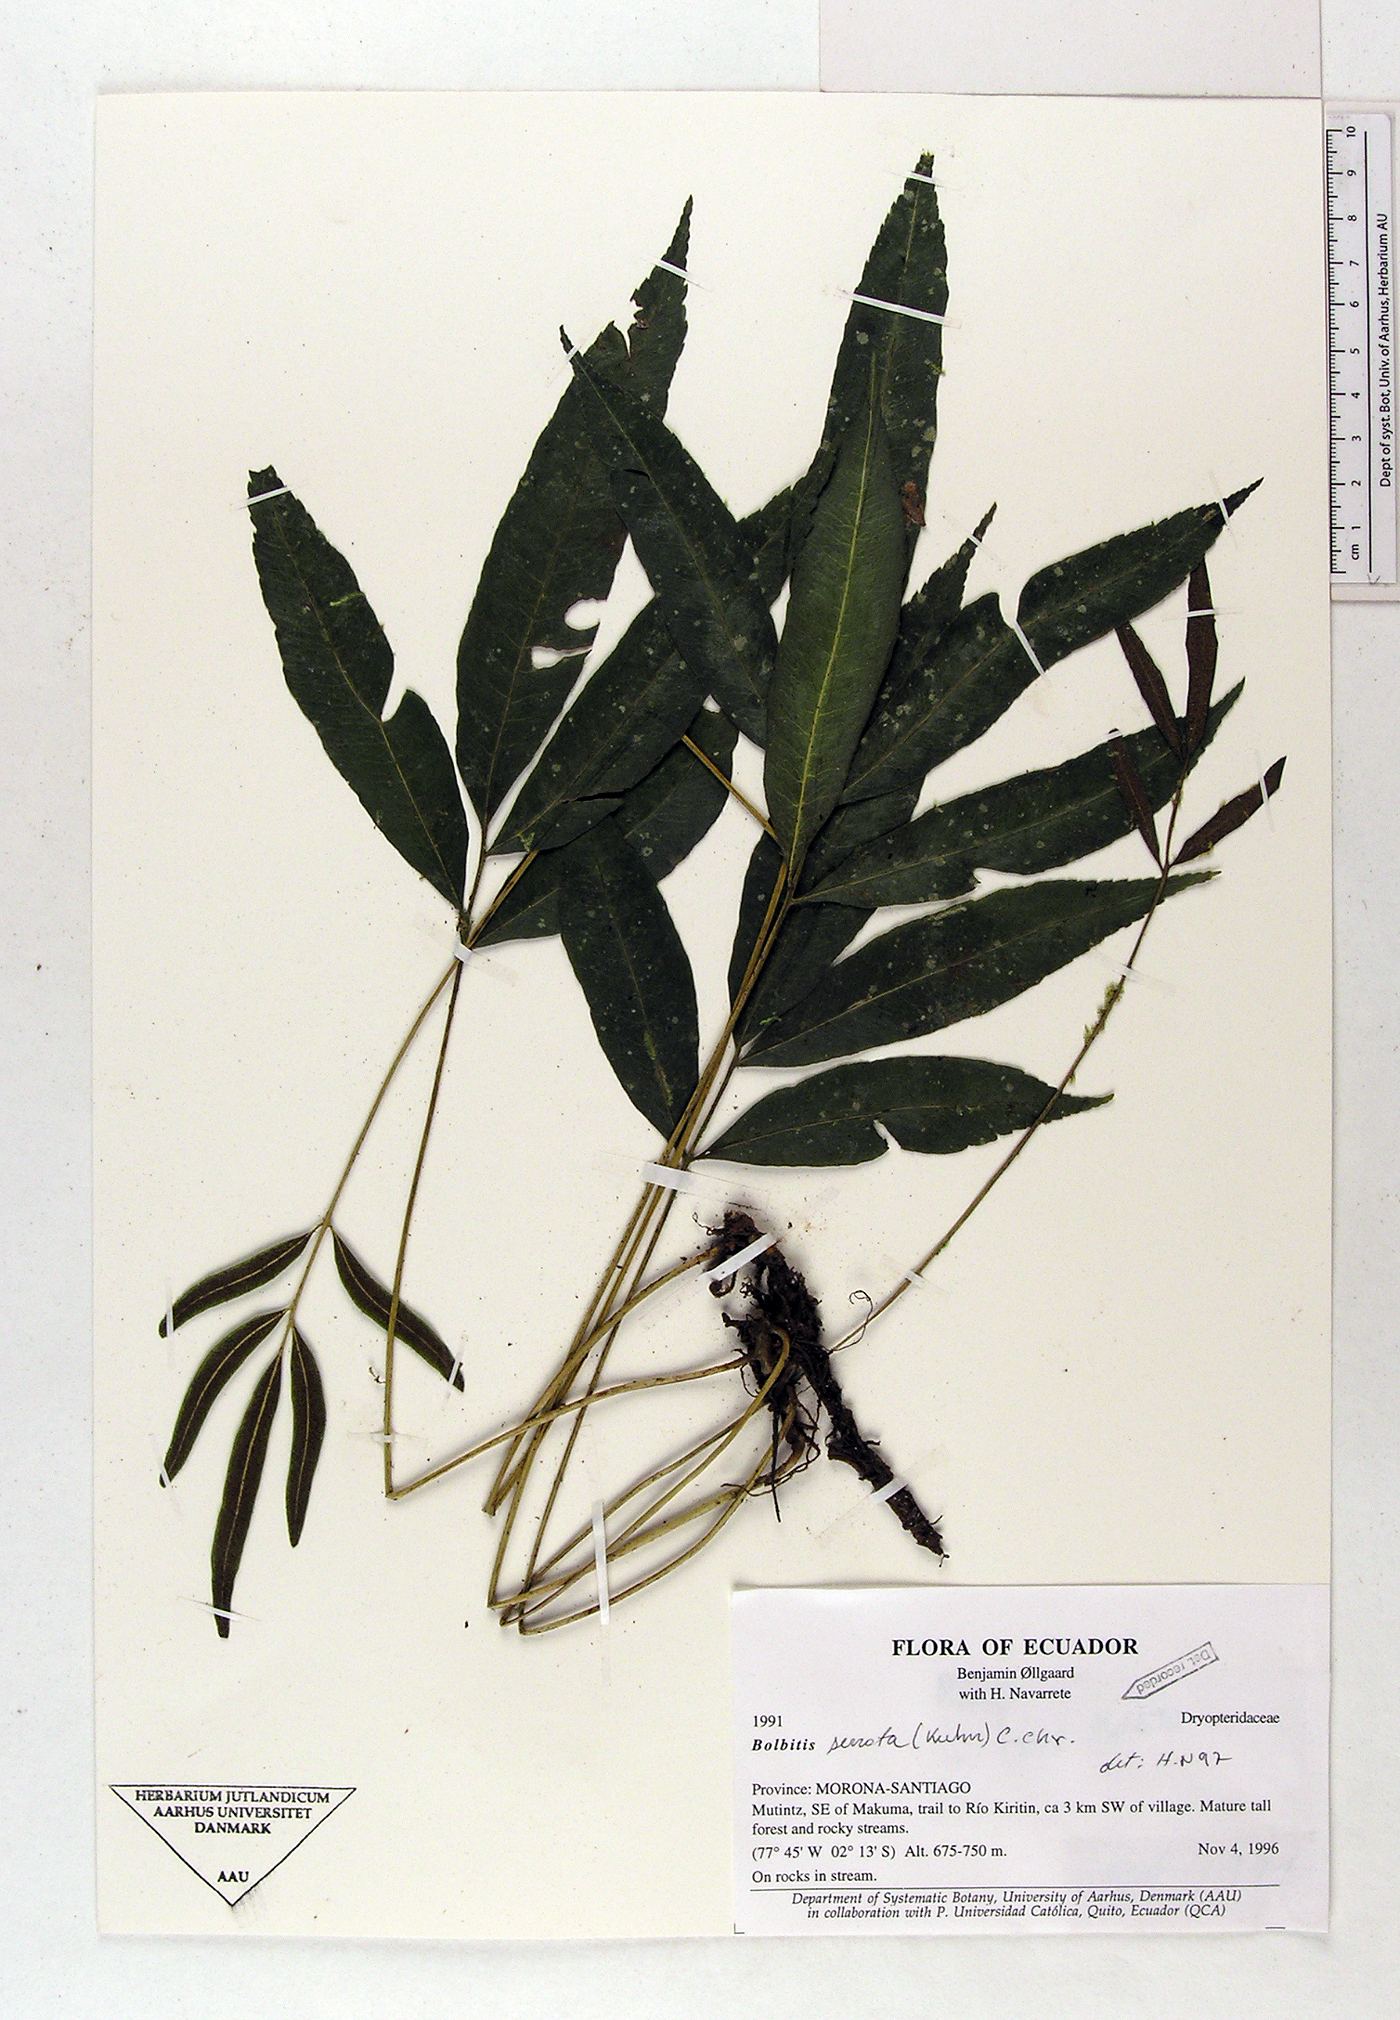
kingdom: Plantae
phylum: Tracheophyta
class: Polypodiopsida
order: Polypodiales
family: Dryopteridaceae
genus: Bolbitis
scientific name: Bolbitis serrata
